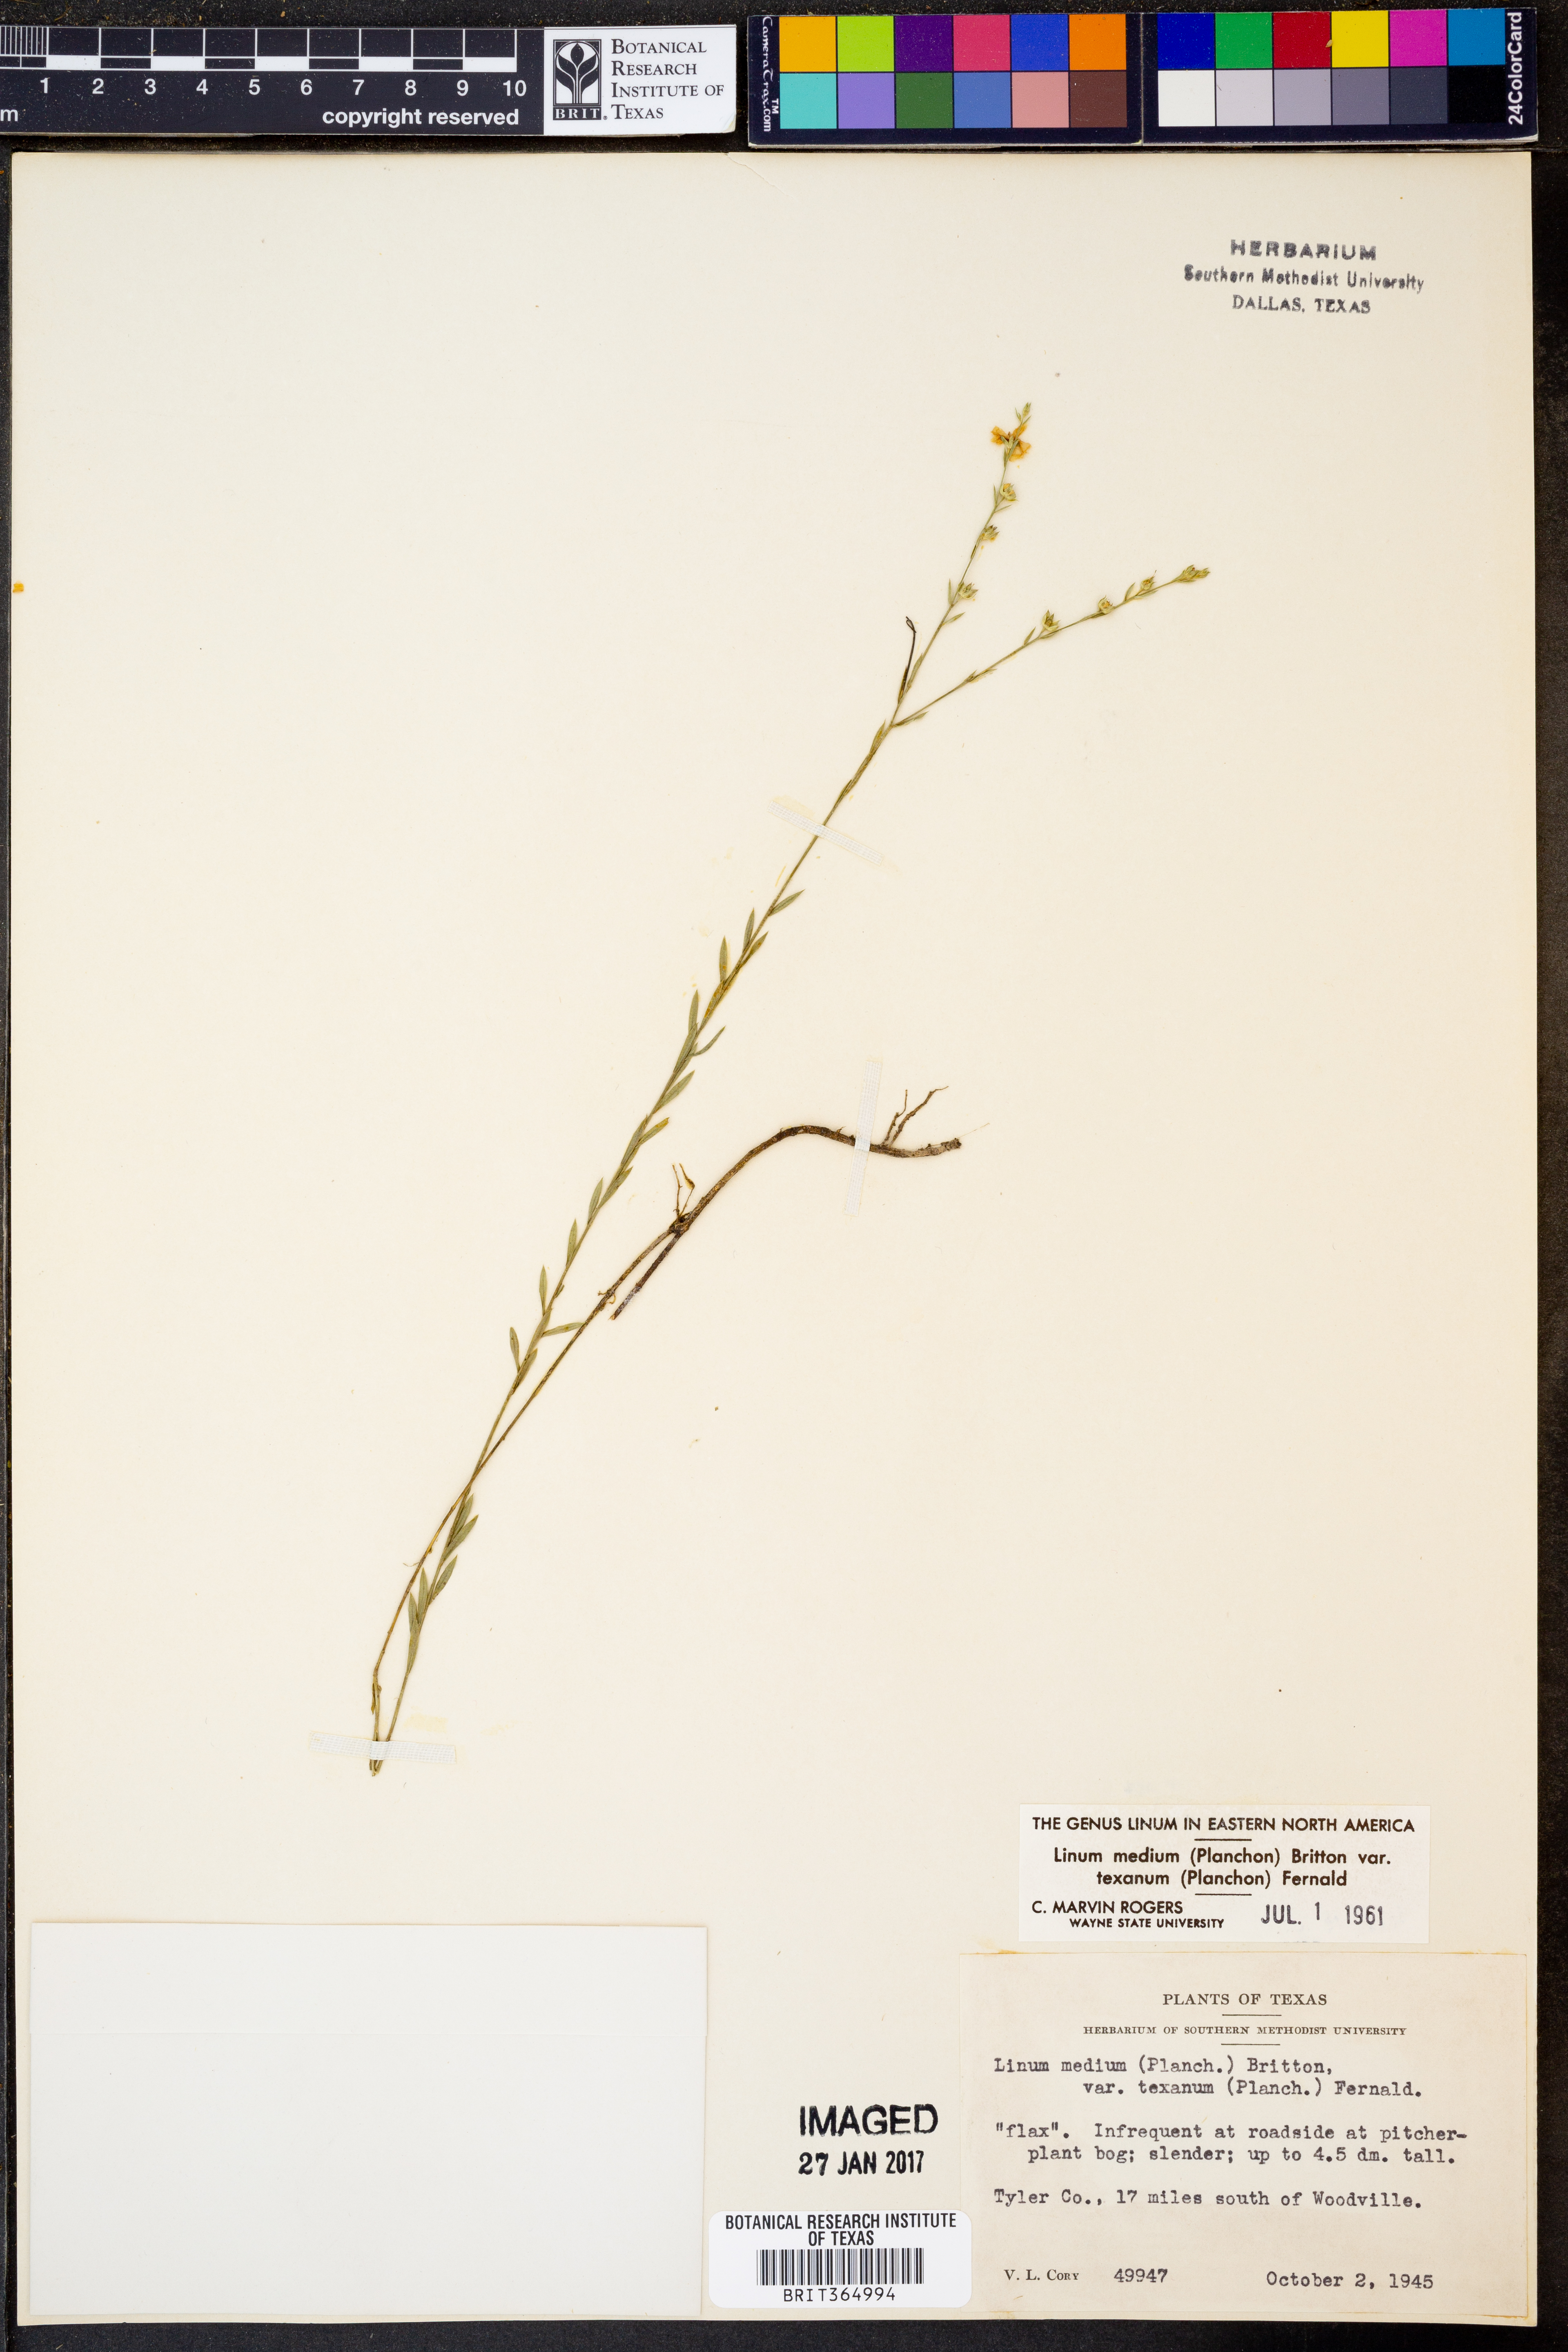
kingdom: Plantae
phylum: Tracheophyta
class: Magnoliopsida
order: Malpighiales
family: Linaceae
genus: Linum
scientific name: Linum medium
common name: Stiff yellow flax
